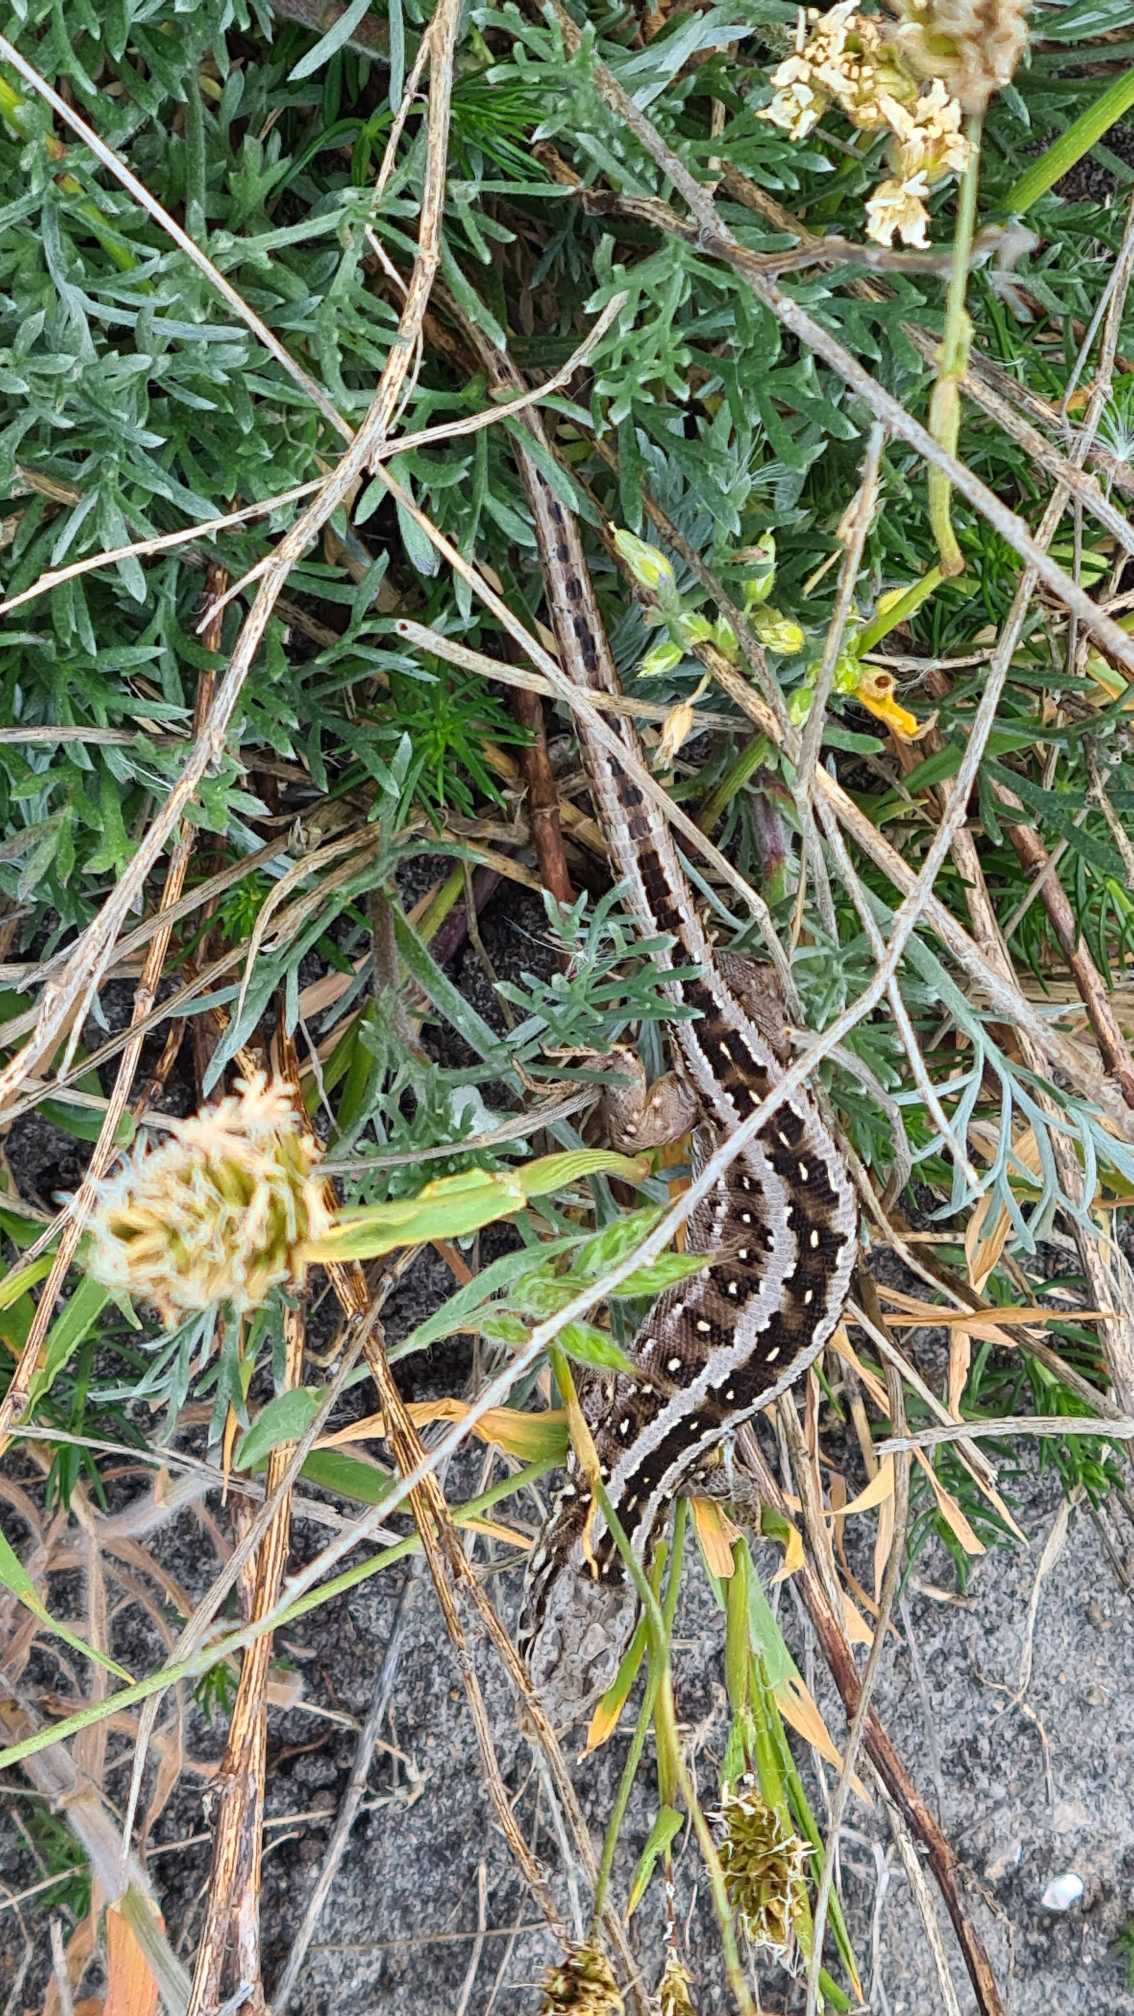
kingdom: Animalia
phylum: Chordata
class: Squamata
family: Lacertidae
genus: Lacerta
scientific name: Lacerta agilis
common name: Markfirben
